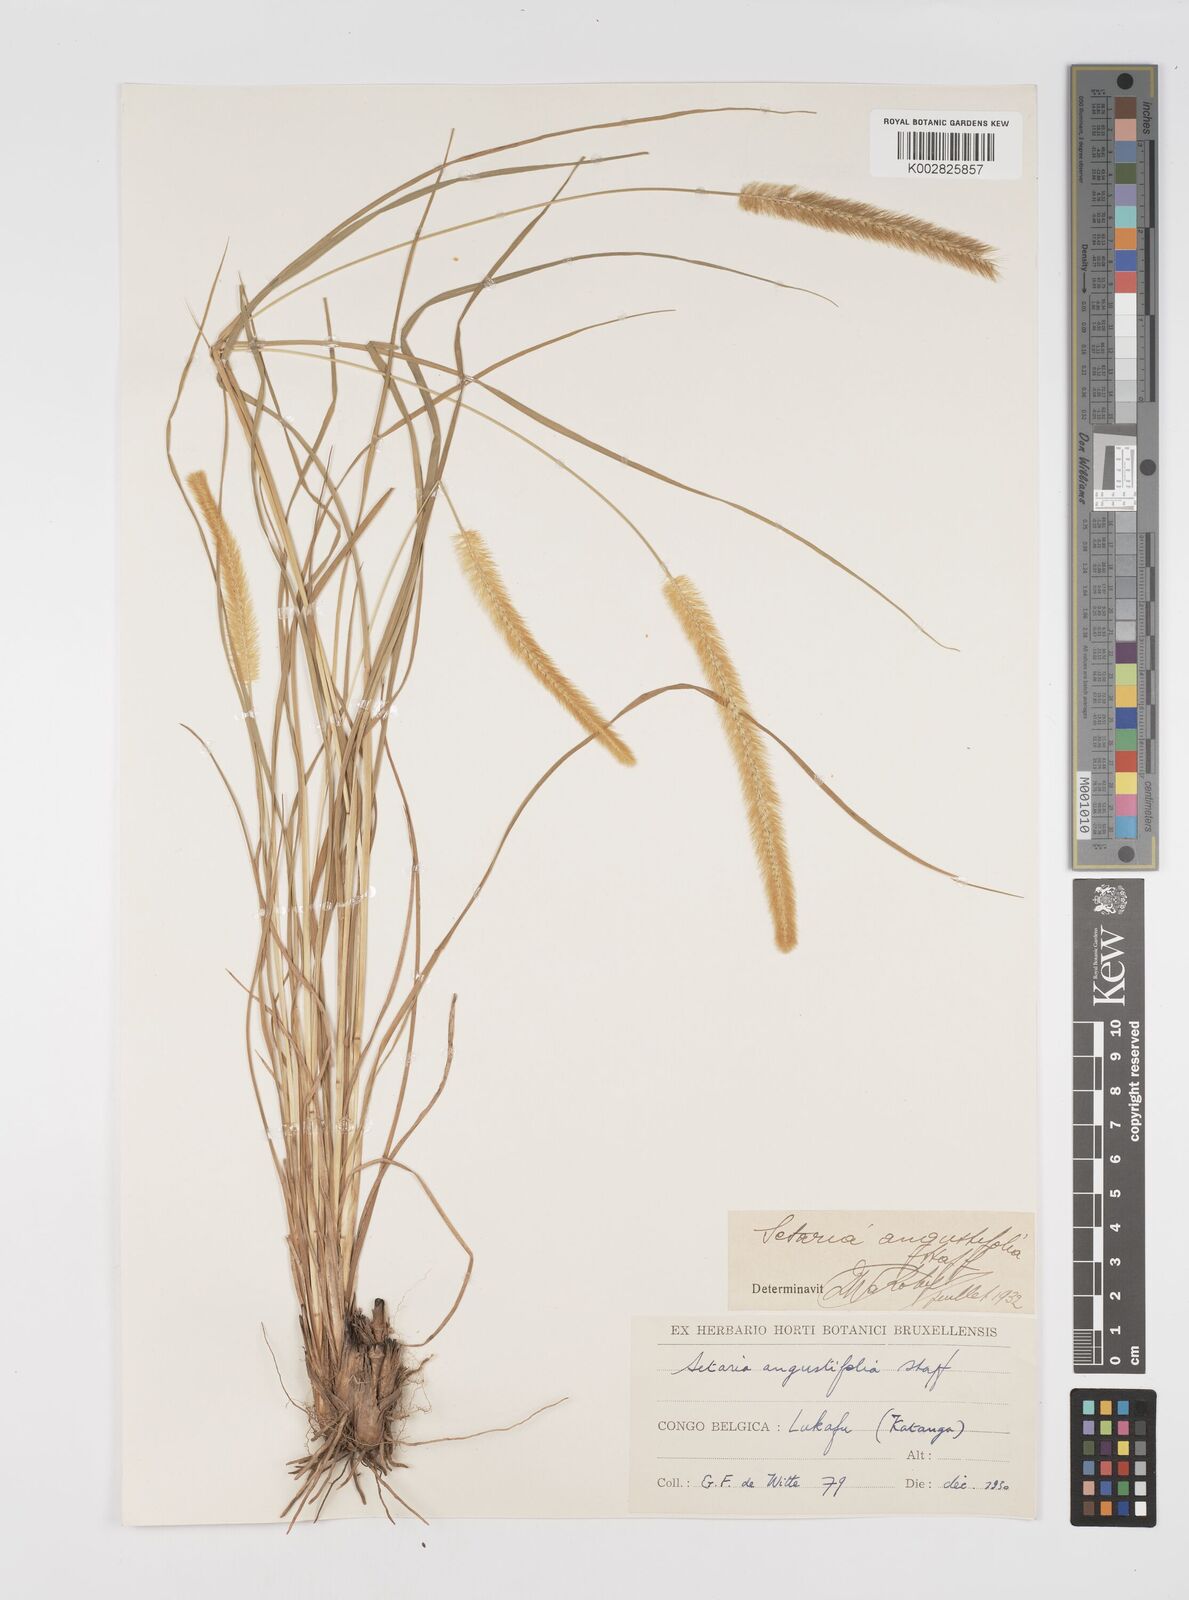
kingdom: Plantae
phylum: Tracheophyta
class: Liliopsida
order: Poales
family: Poaceae
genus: Setaria
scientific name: Setaria sphacelata
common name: African bristlegrass
